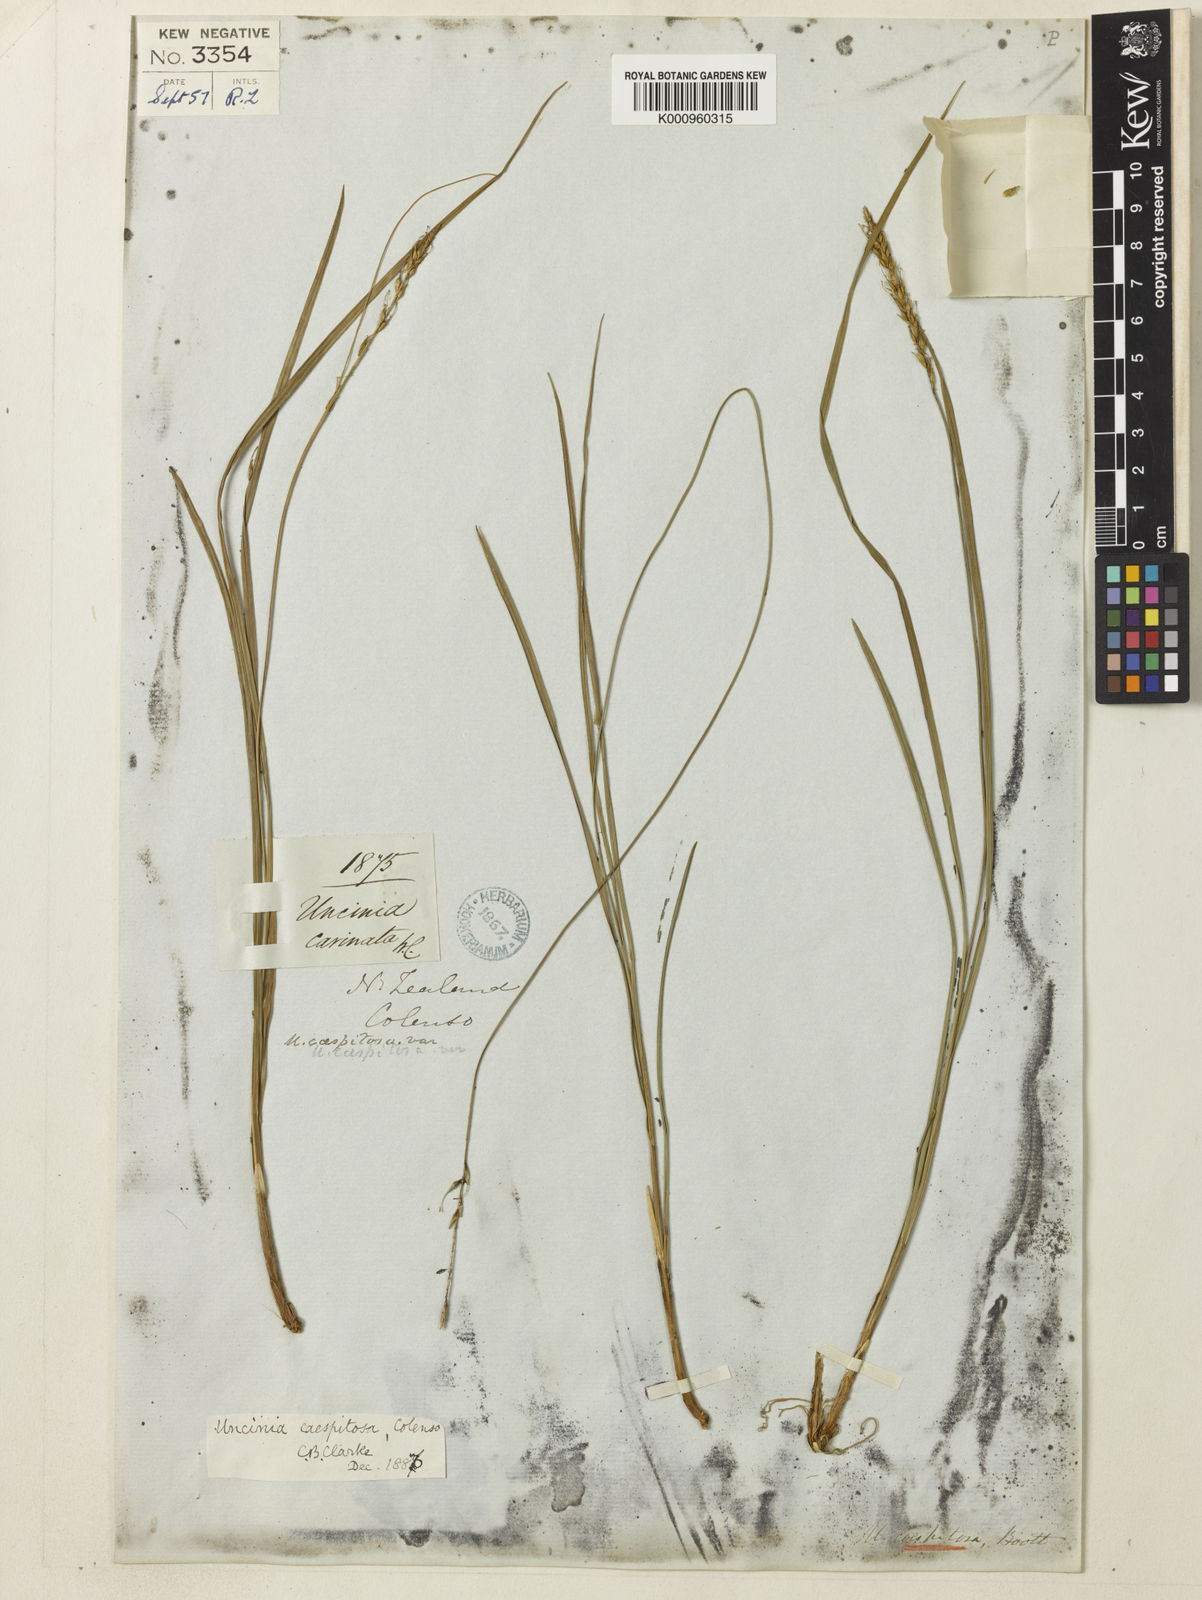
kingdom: Plantae
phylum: Tracheophyta
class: Liliopsida
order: Poales
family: Cyperaceae
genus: Carex
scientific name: Carex astricta
